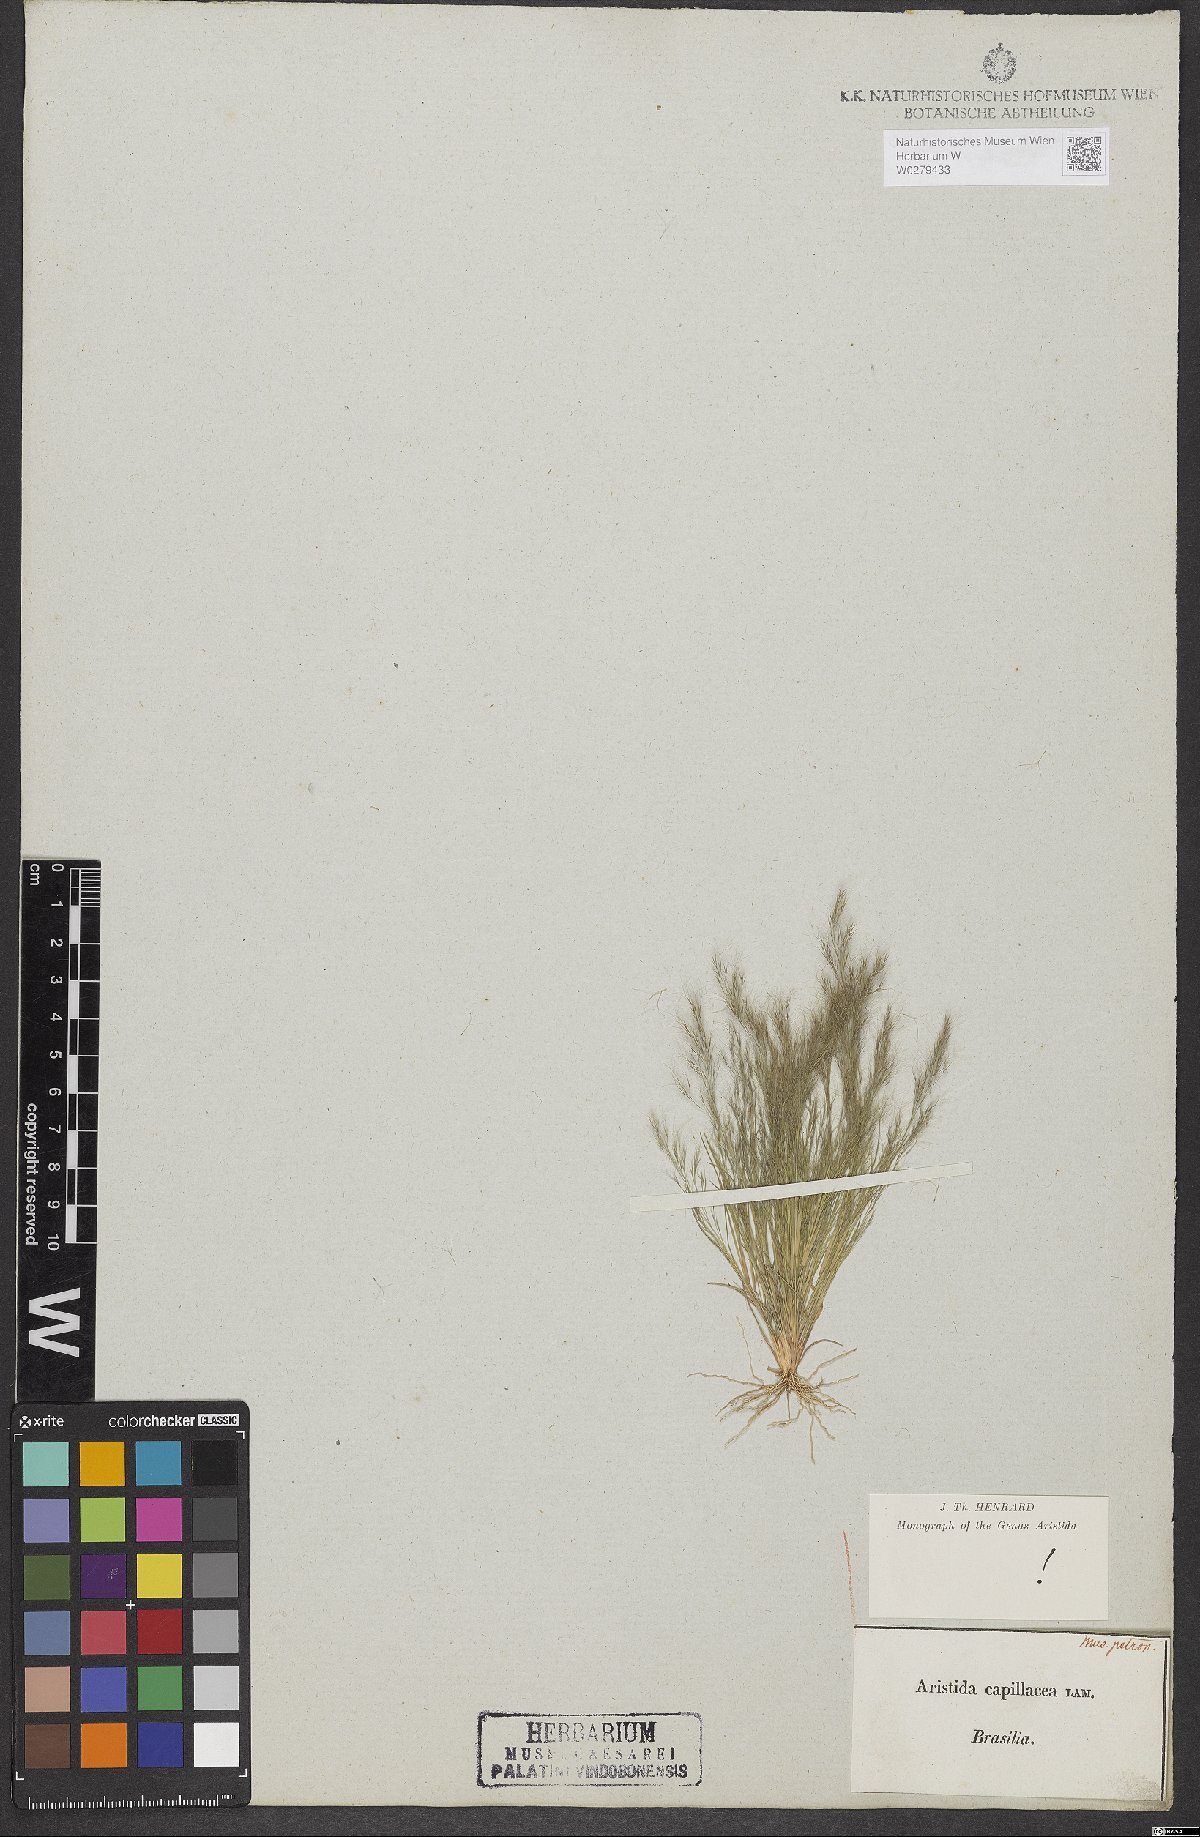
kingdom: Plantae
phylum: Tracheophyta
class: Liliopsida
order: Poales
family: Poaceae
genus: Aristida
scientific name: Aristida capillacea
